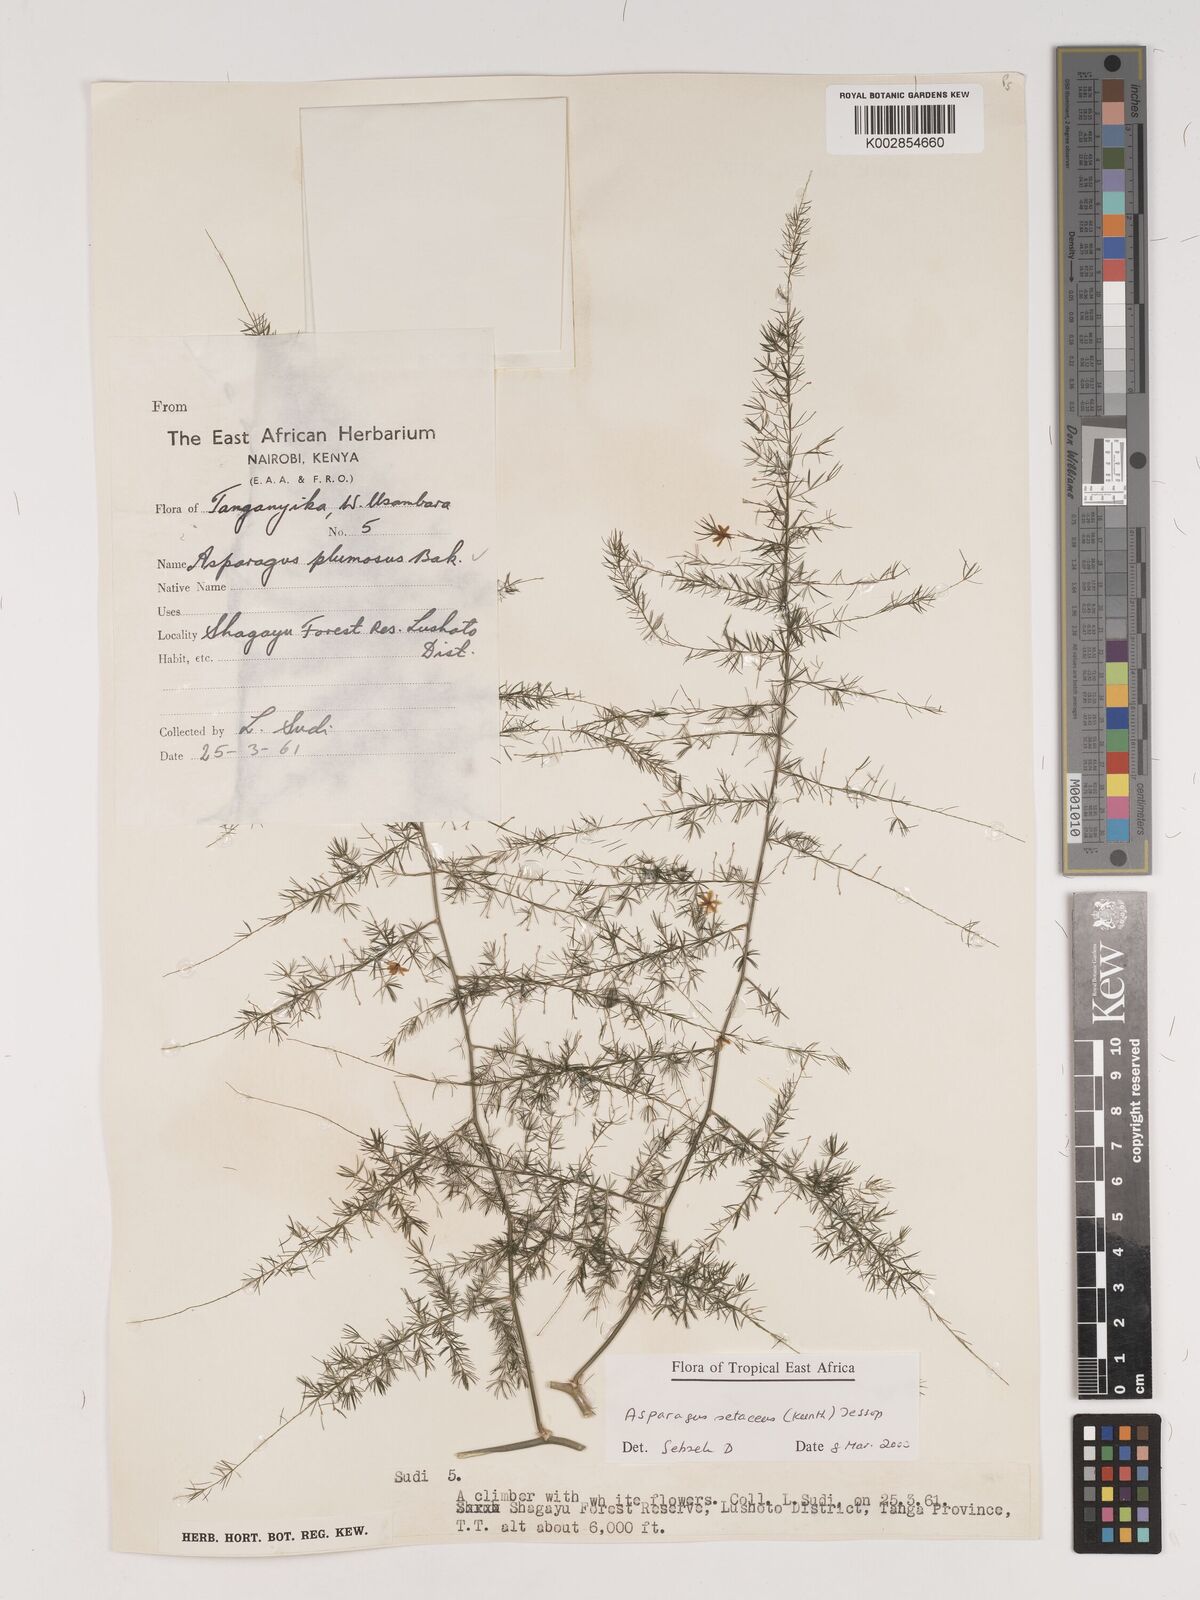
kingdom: Plantae
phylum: Tracheophyta
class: Liliopsida
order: Asparagales
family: Asparagaceae
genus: Asparagus
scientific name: Asparagus setaceus
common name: Common asparagus fern
